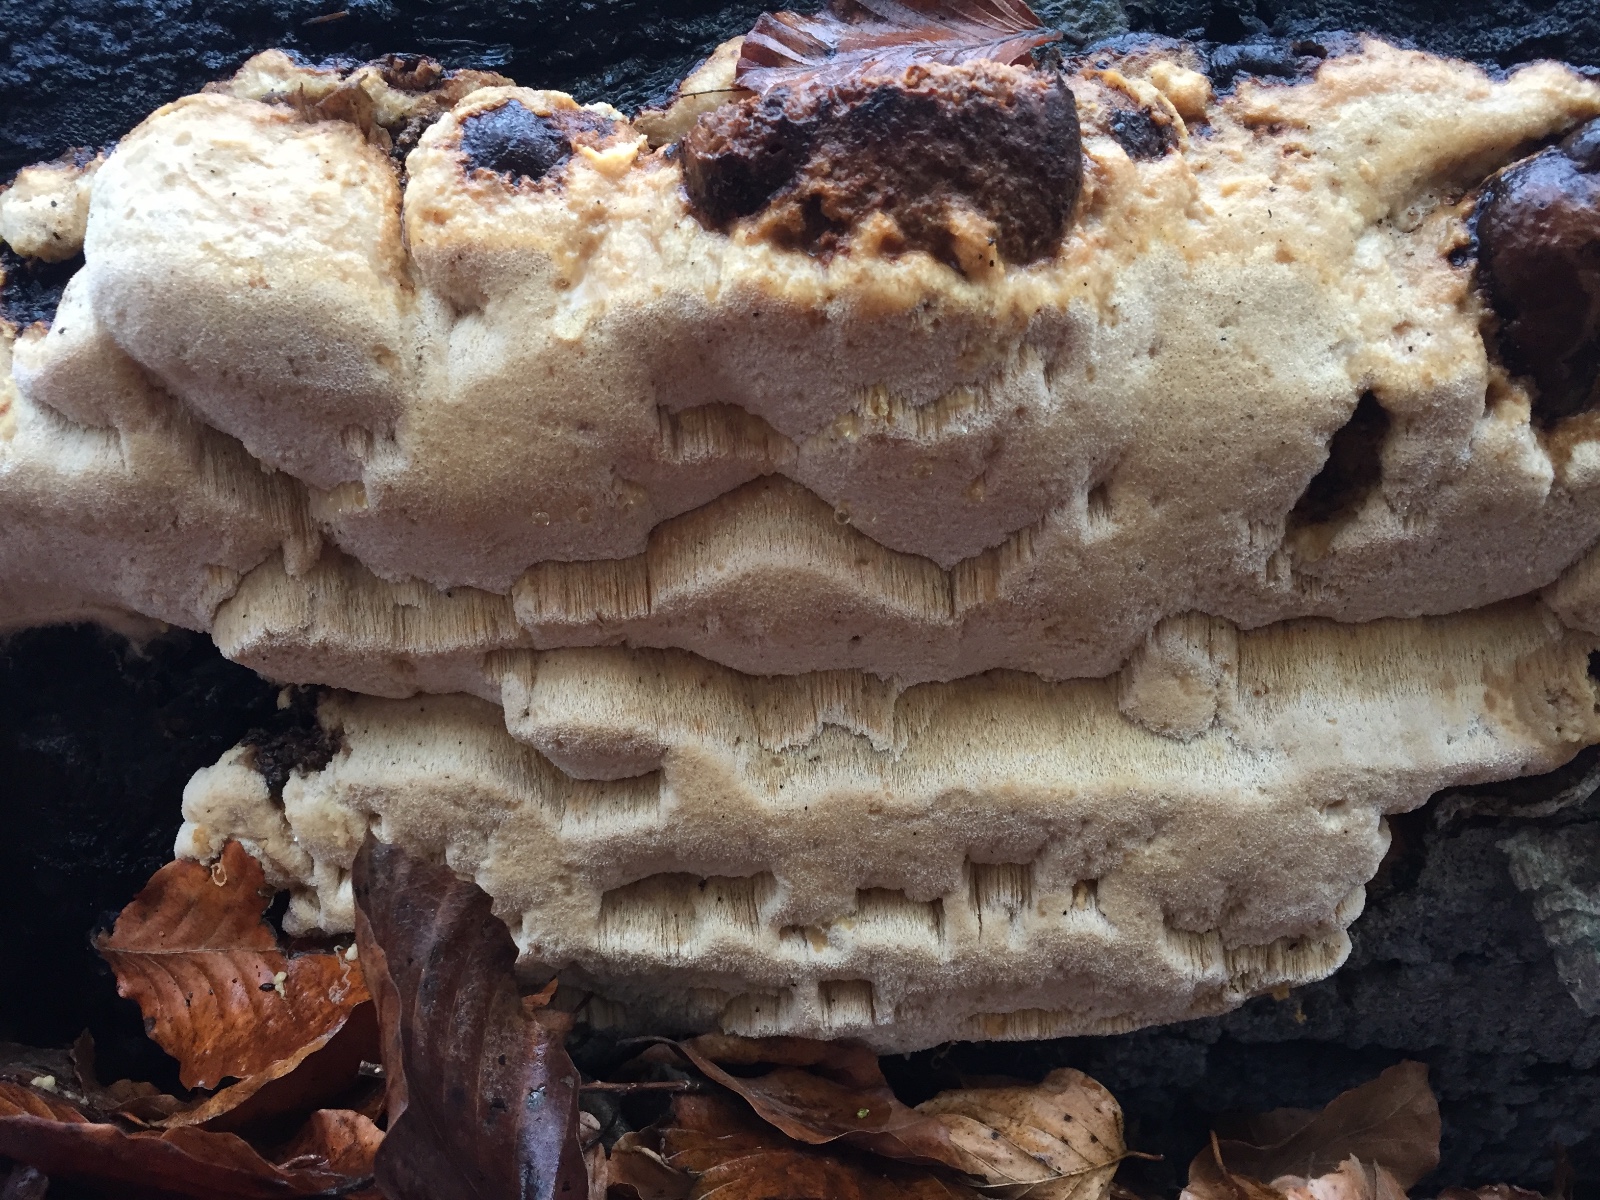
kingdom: Fungi
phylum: Basidiomycota
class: Agaricomycetes
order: Polyporales
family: Ischnodermataceae
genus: Ischnoderma
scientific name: Ischnoderma resinosum
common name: løv-tjæreporesvamp
